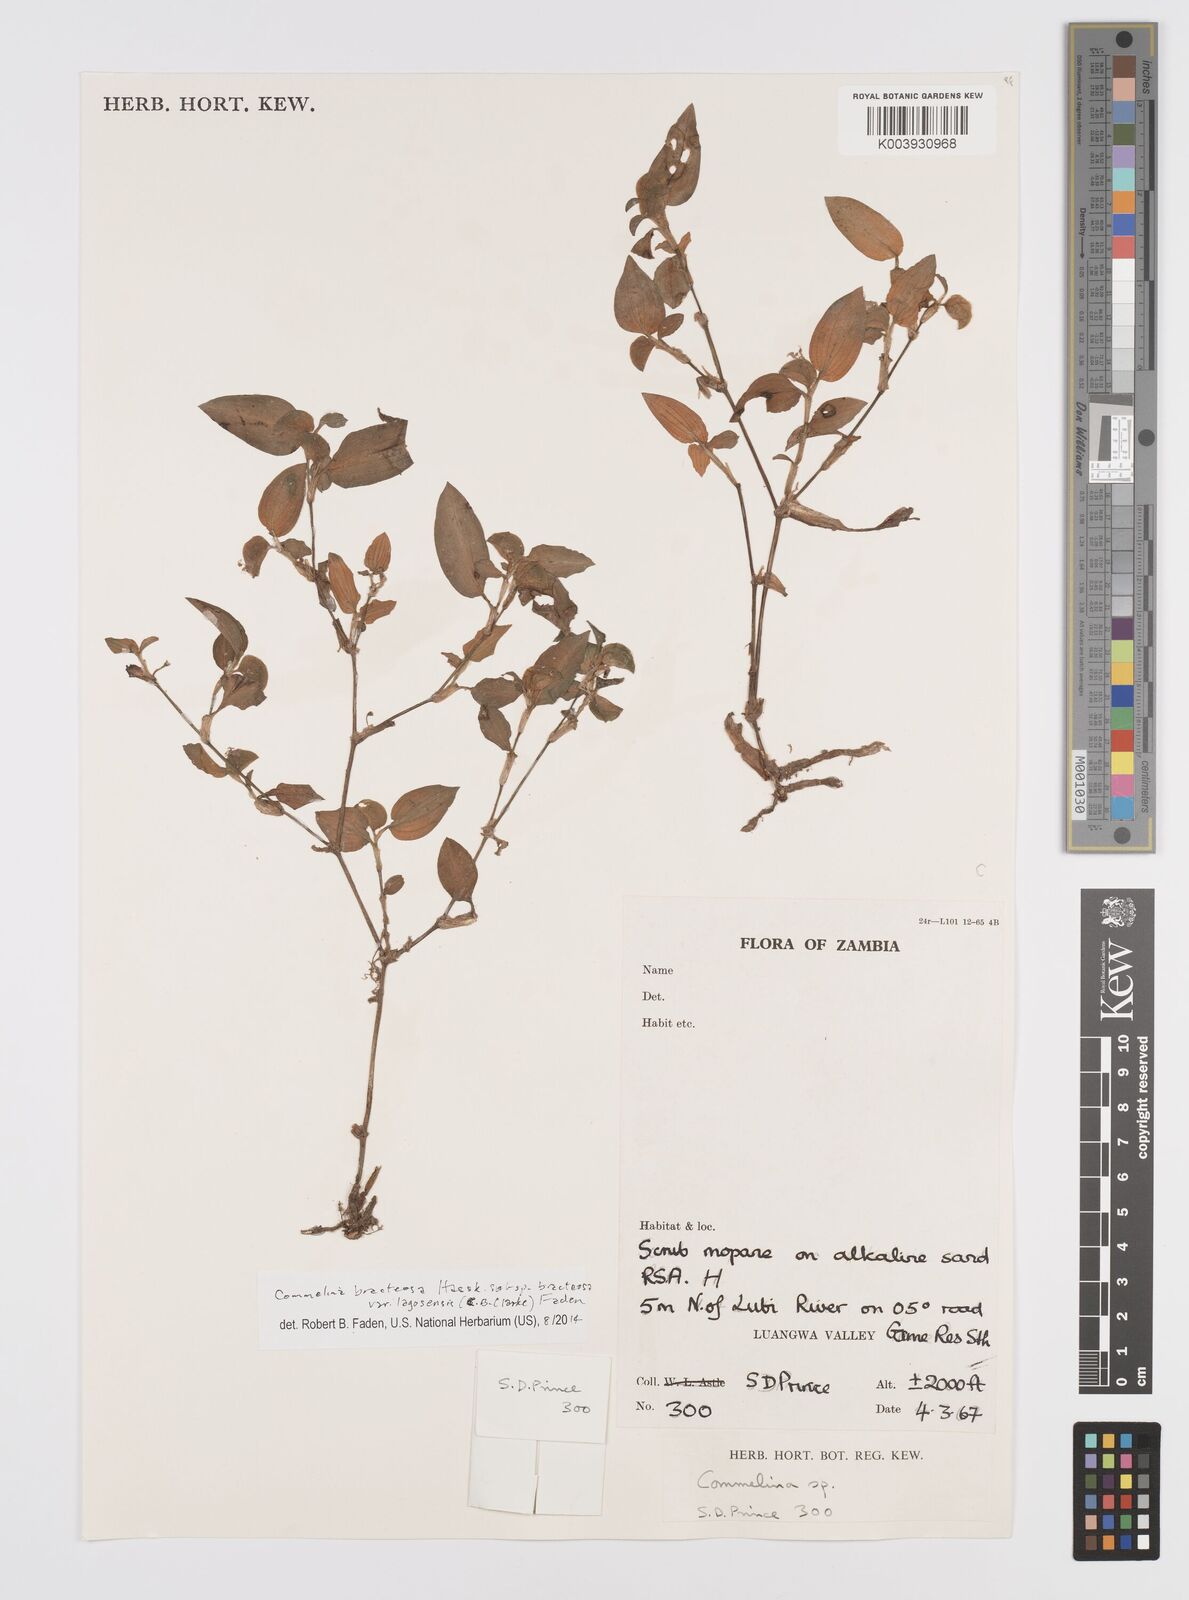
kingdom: Plantae
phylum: Tracheophyta
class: Liliopsida
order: Commelinales
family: Commelinaceae
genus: Commelina
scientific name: Commelina bracteosa
